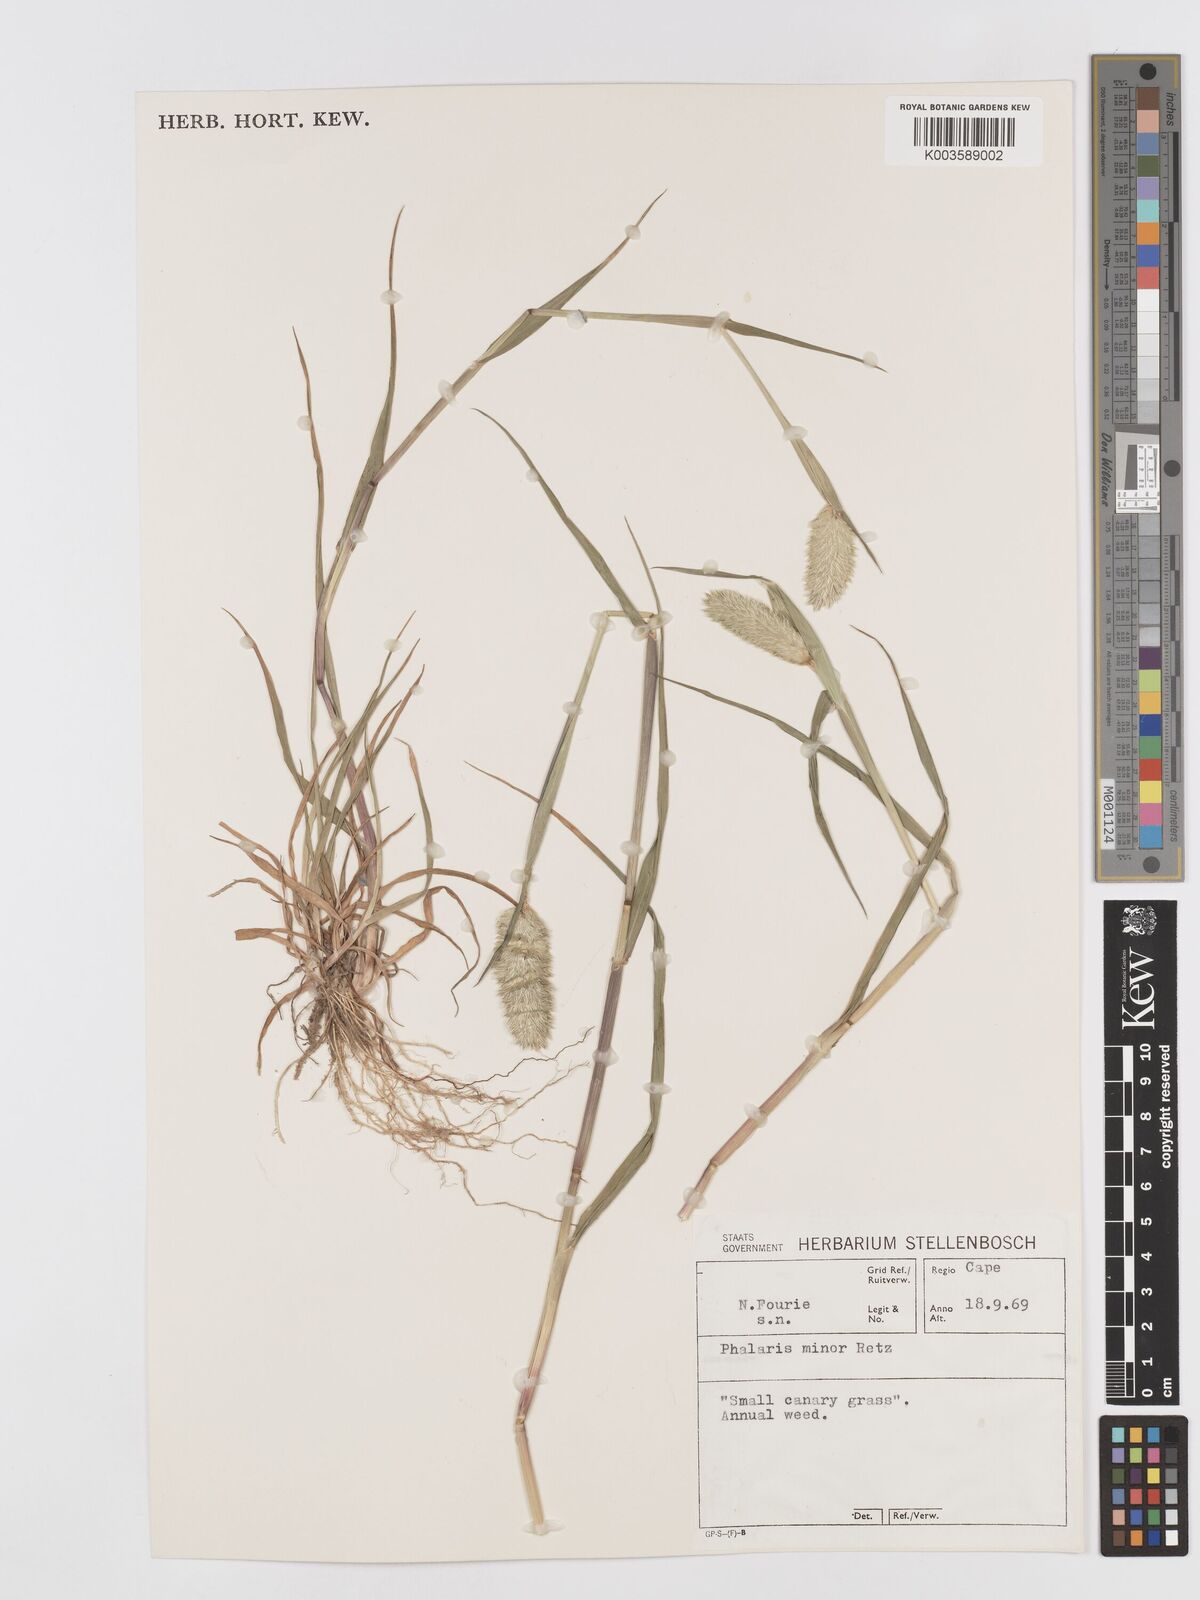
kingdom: Plantae
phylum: Tracheophyta
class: Liliopsida
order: Poales
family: Poaceae
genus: Phalaris
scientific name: Phalaris minor
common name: Littleseed canarygrass
